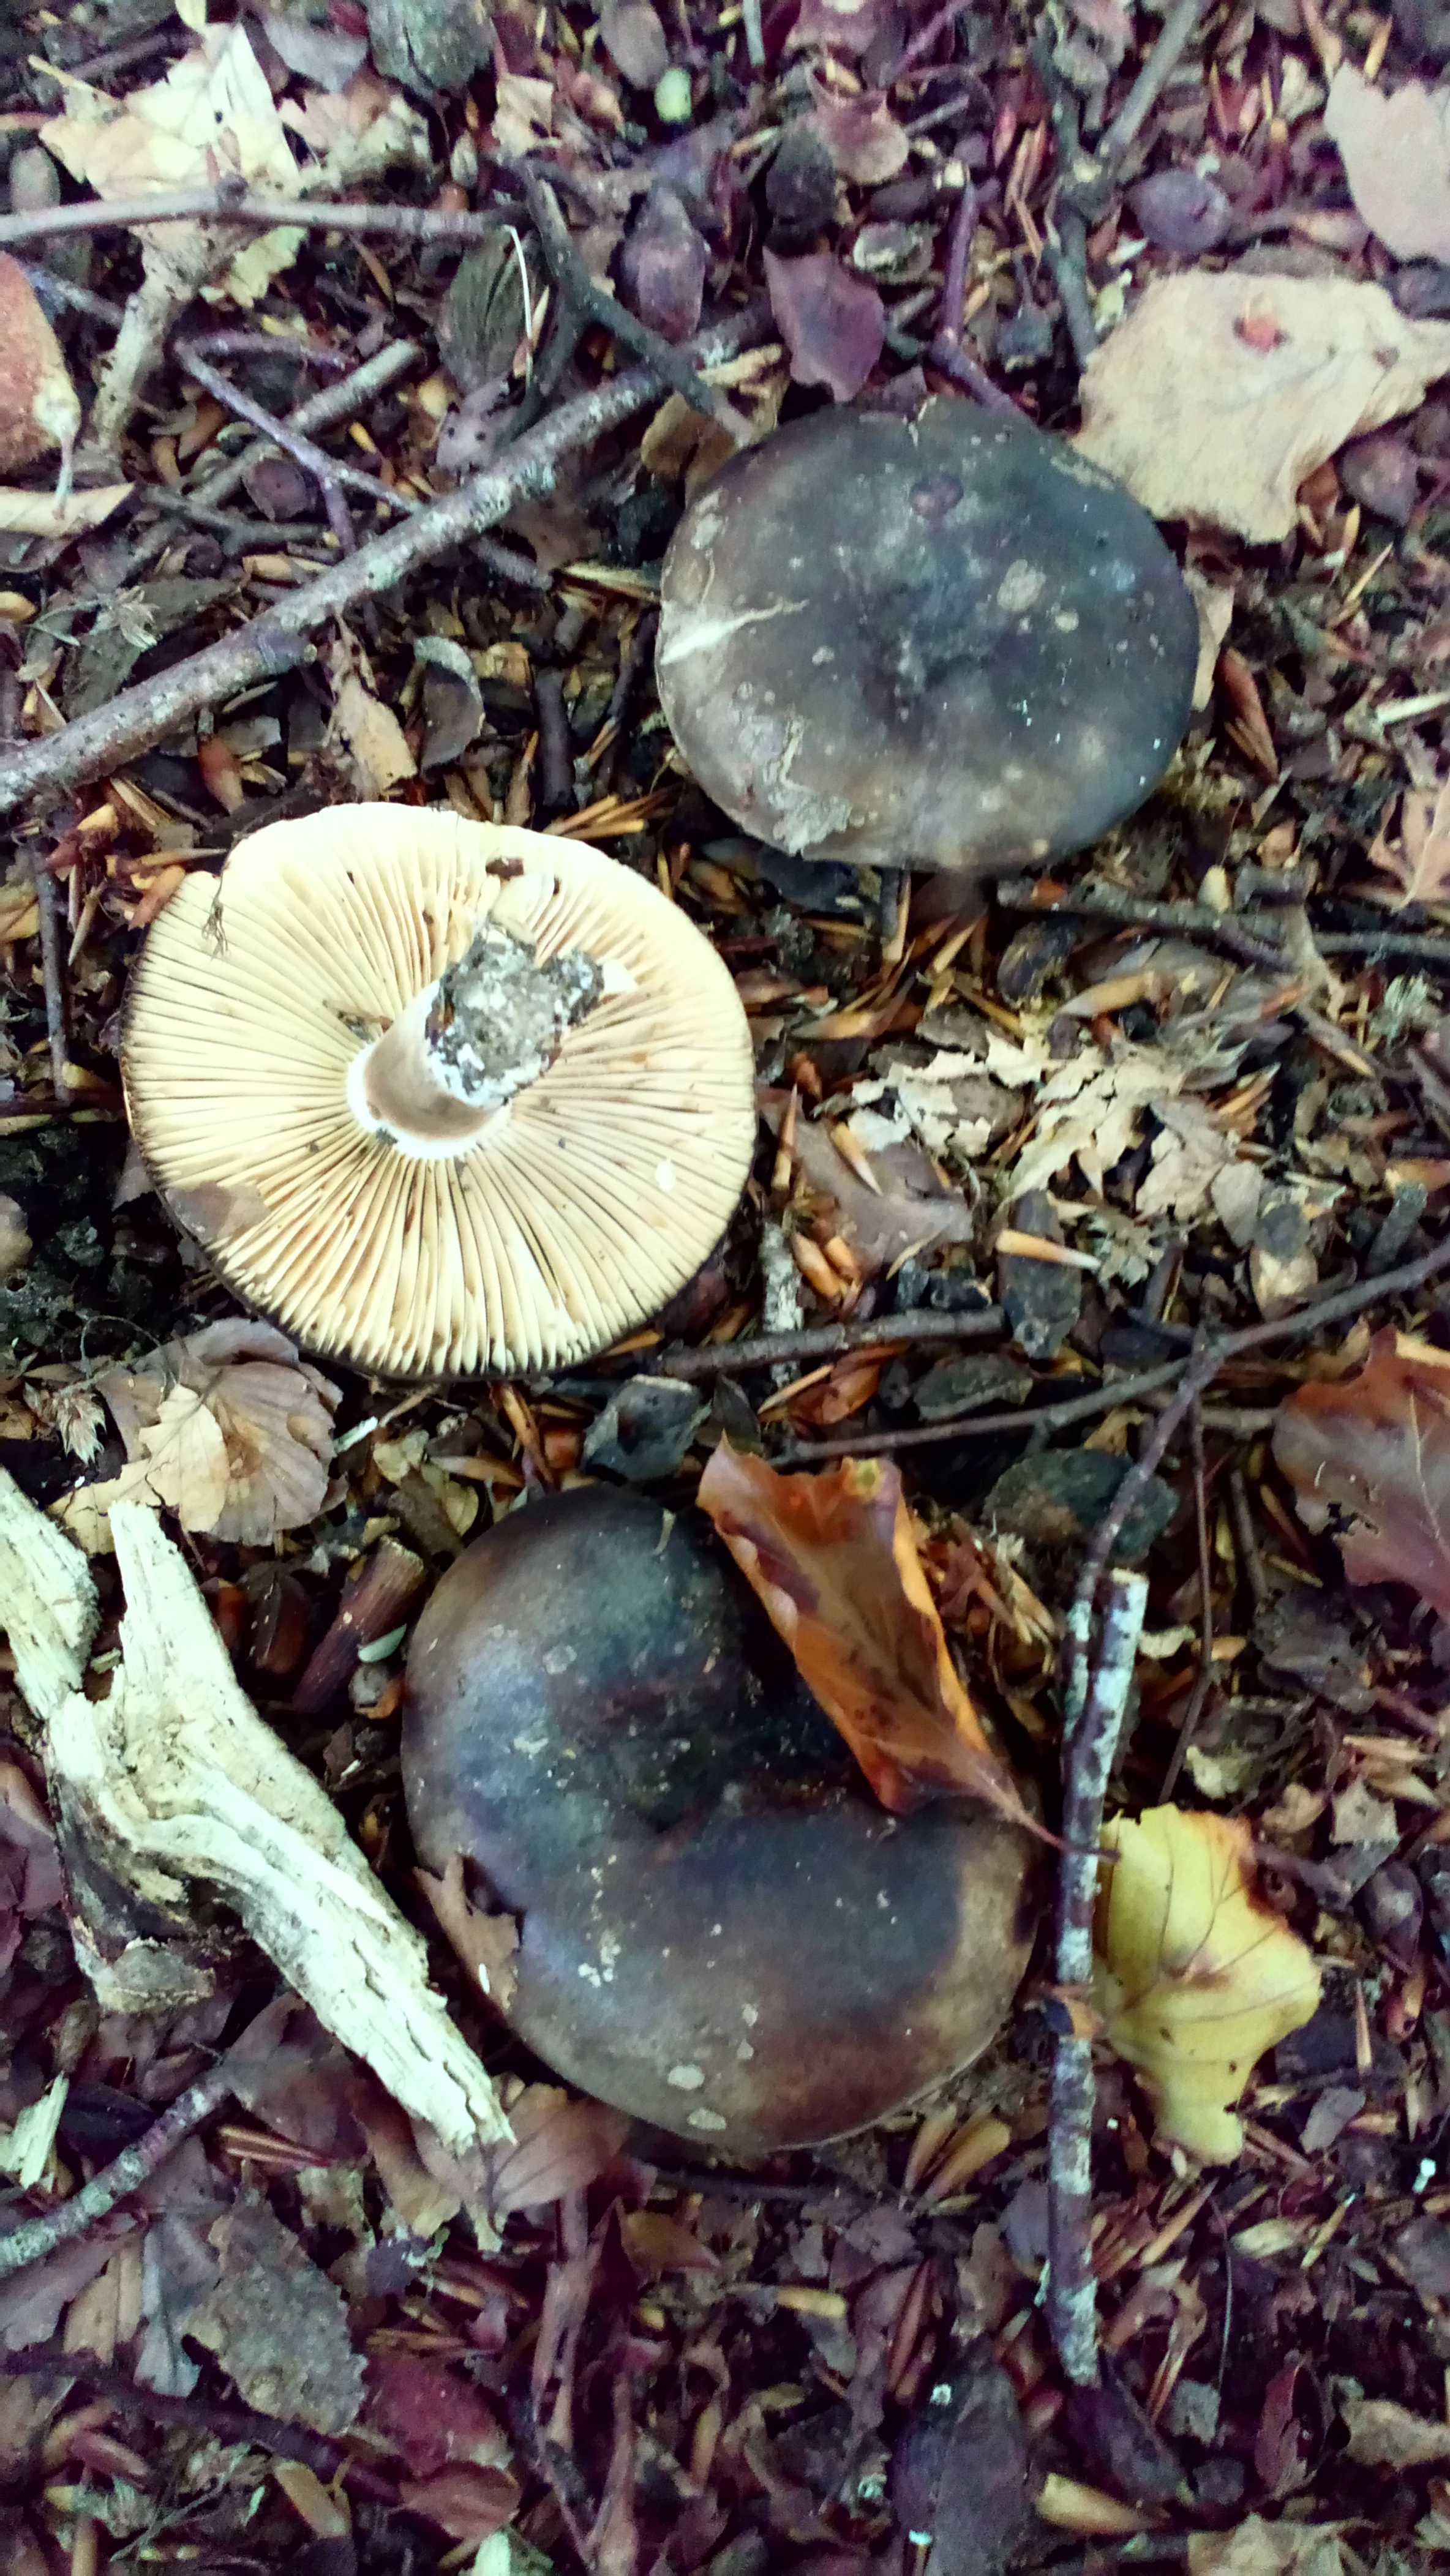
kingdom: Fungi
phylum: Basidiomycota
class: Agaricomycetes
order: Russulales
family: Russulaceae
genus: Russula
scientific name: Russula adusta
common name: sværtende skørhat
